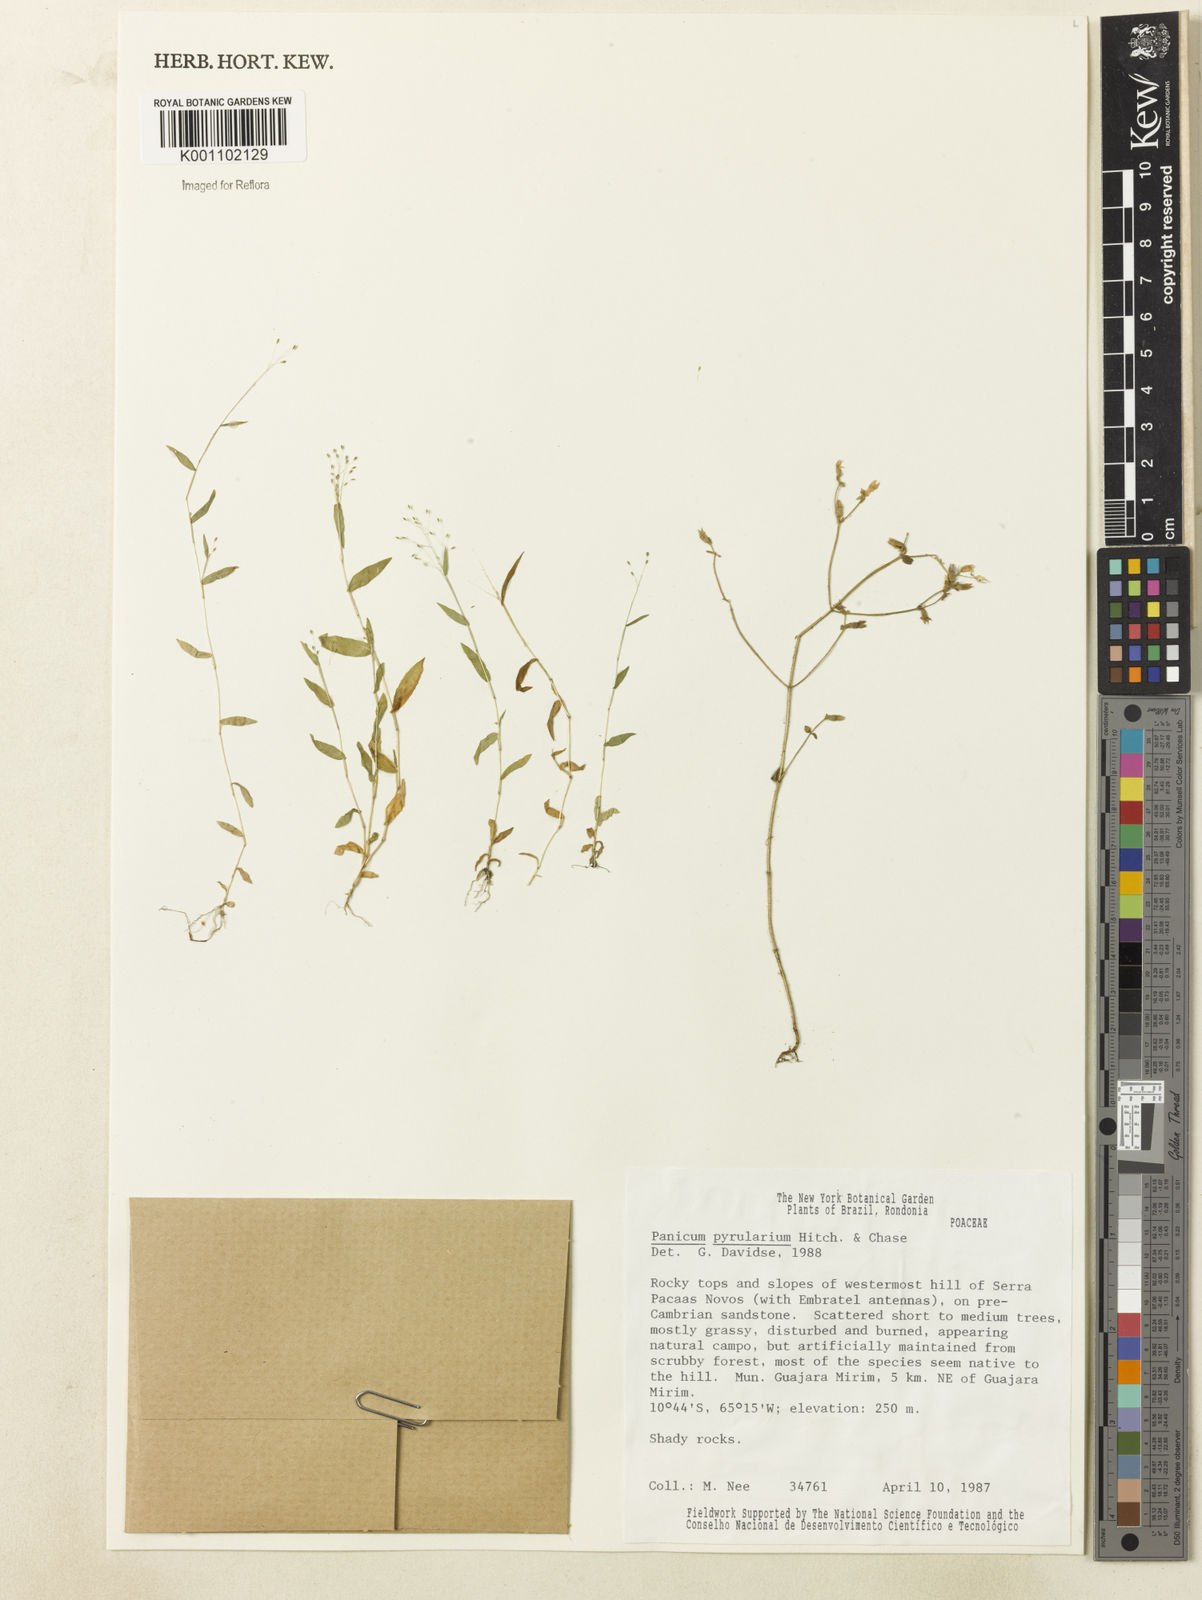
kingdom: Plantae
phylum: Tracheophyta
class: Liliopsida
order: Poales
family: Poaceae
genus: Trichanthecium
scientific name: Trichanthecium pyrularium
